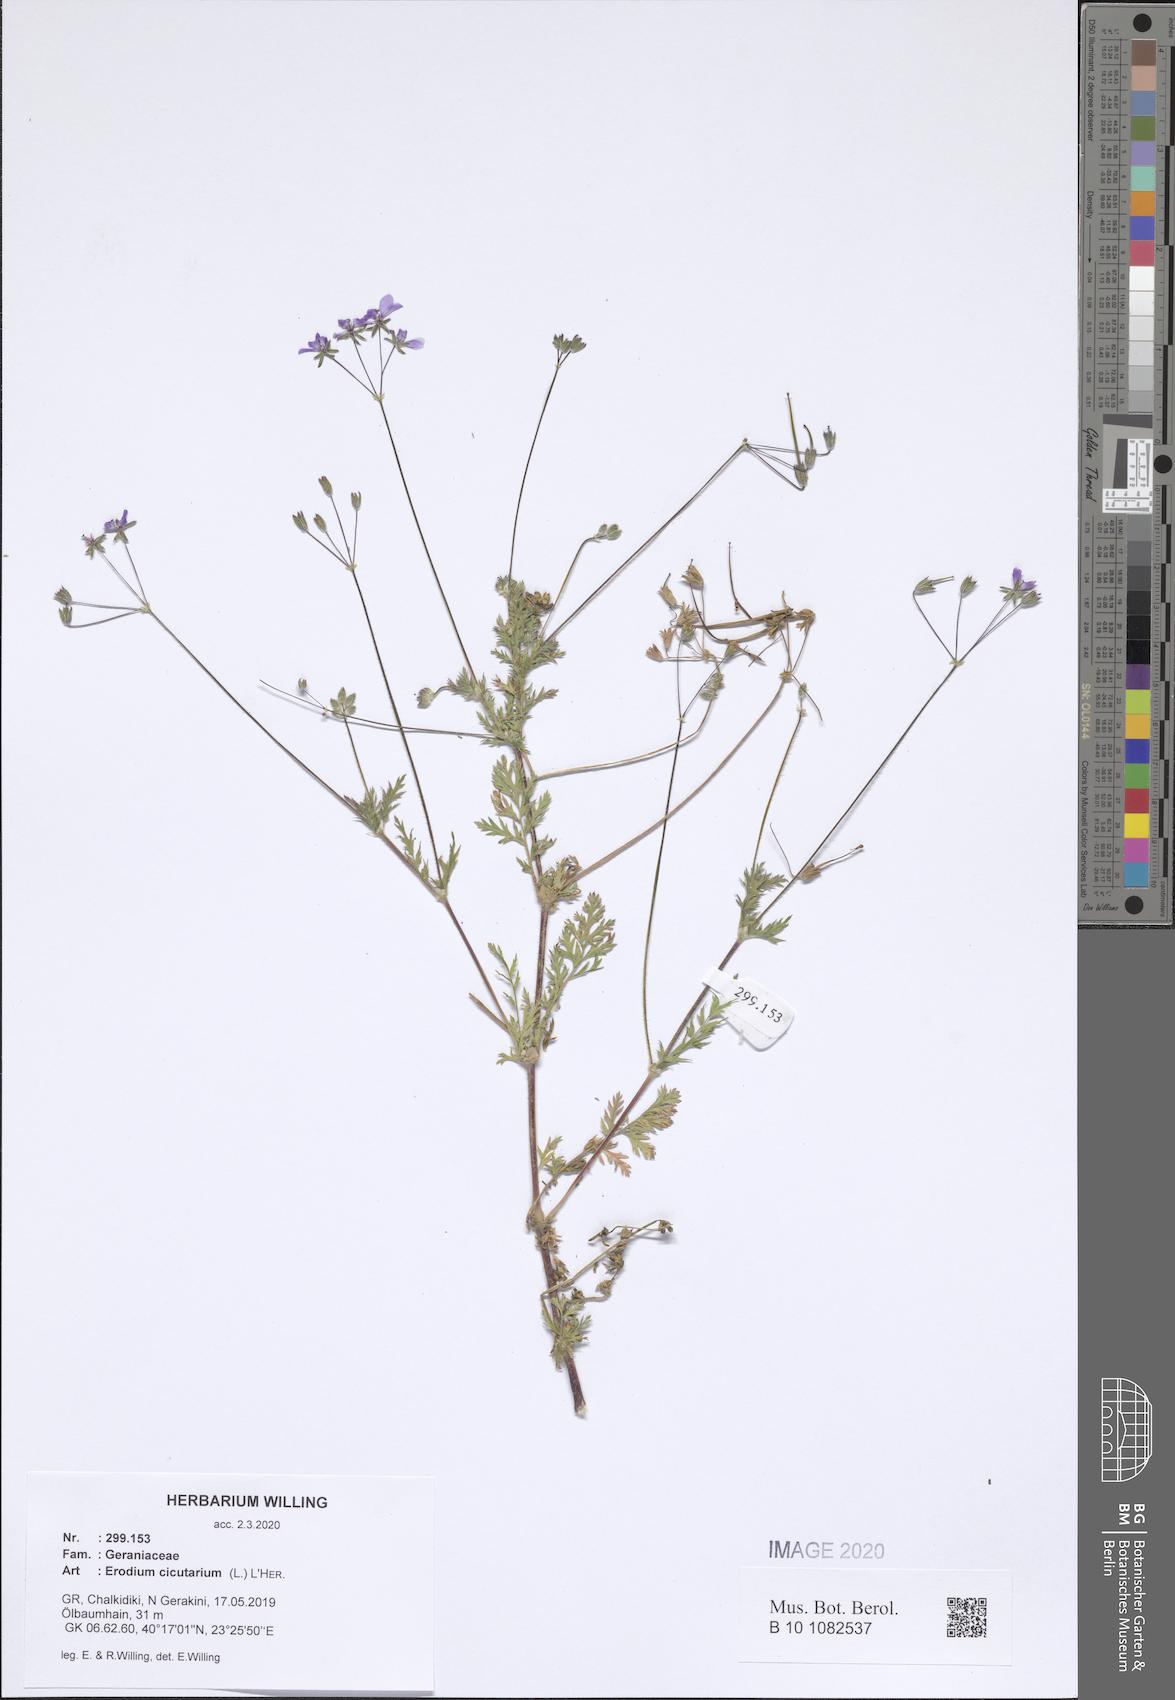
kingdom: Plantae
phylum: Tracheophyta
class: Magnoliopsida
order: Geraniales
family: Geraniaceae
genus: Erodium
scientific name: Erodium cicutarium
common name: Common stork's-bill
